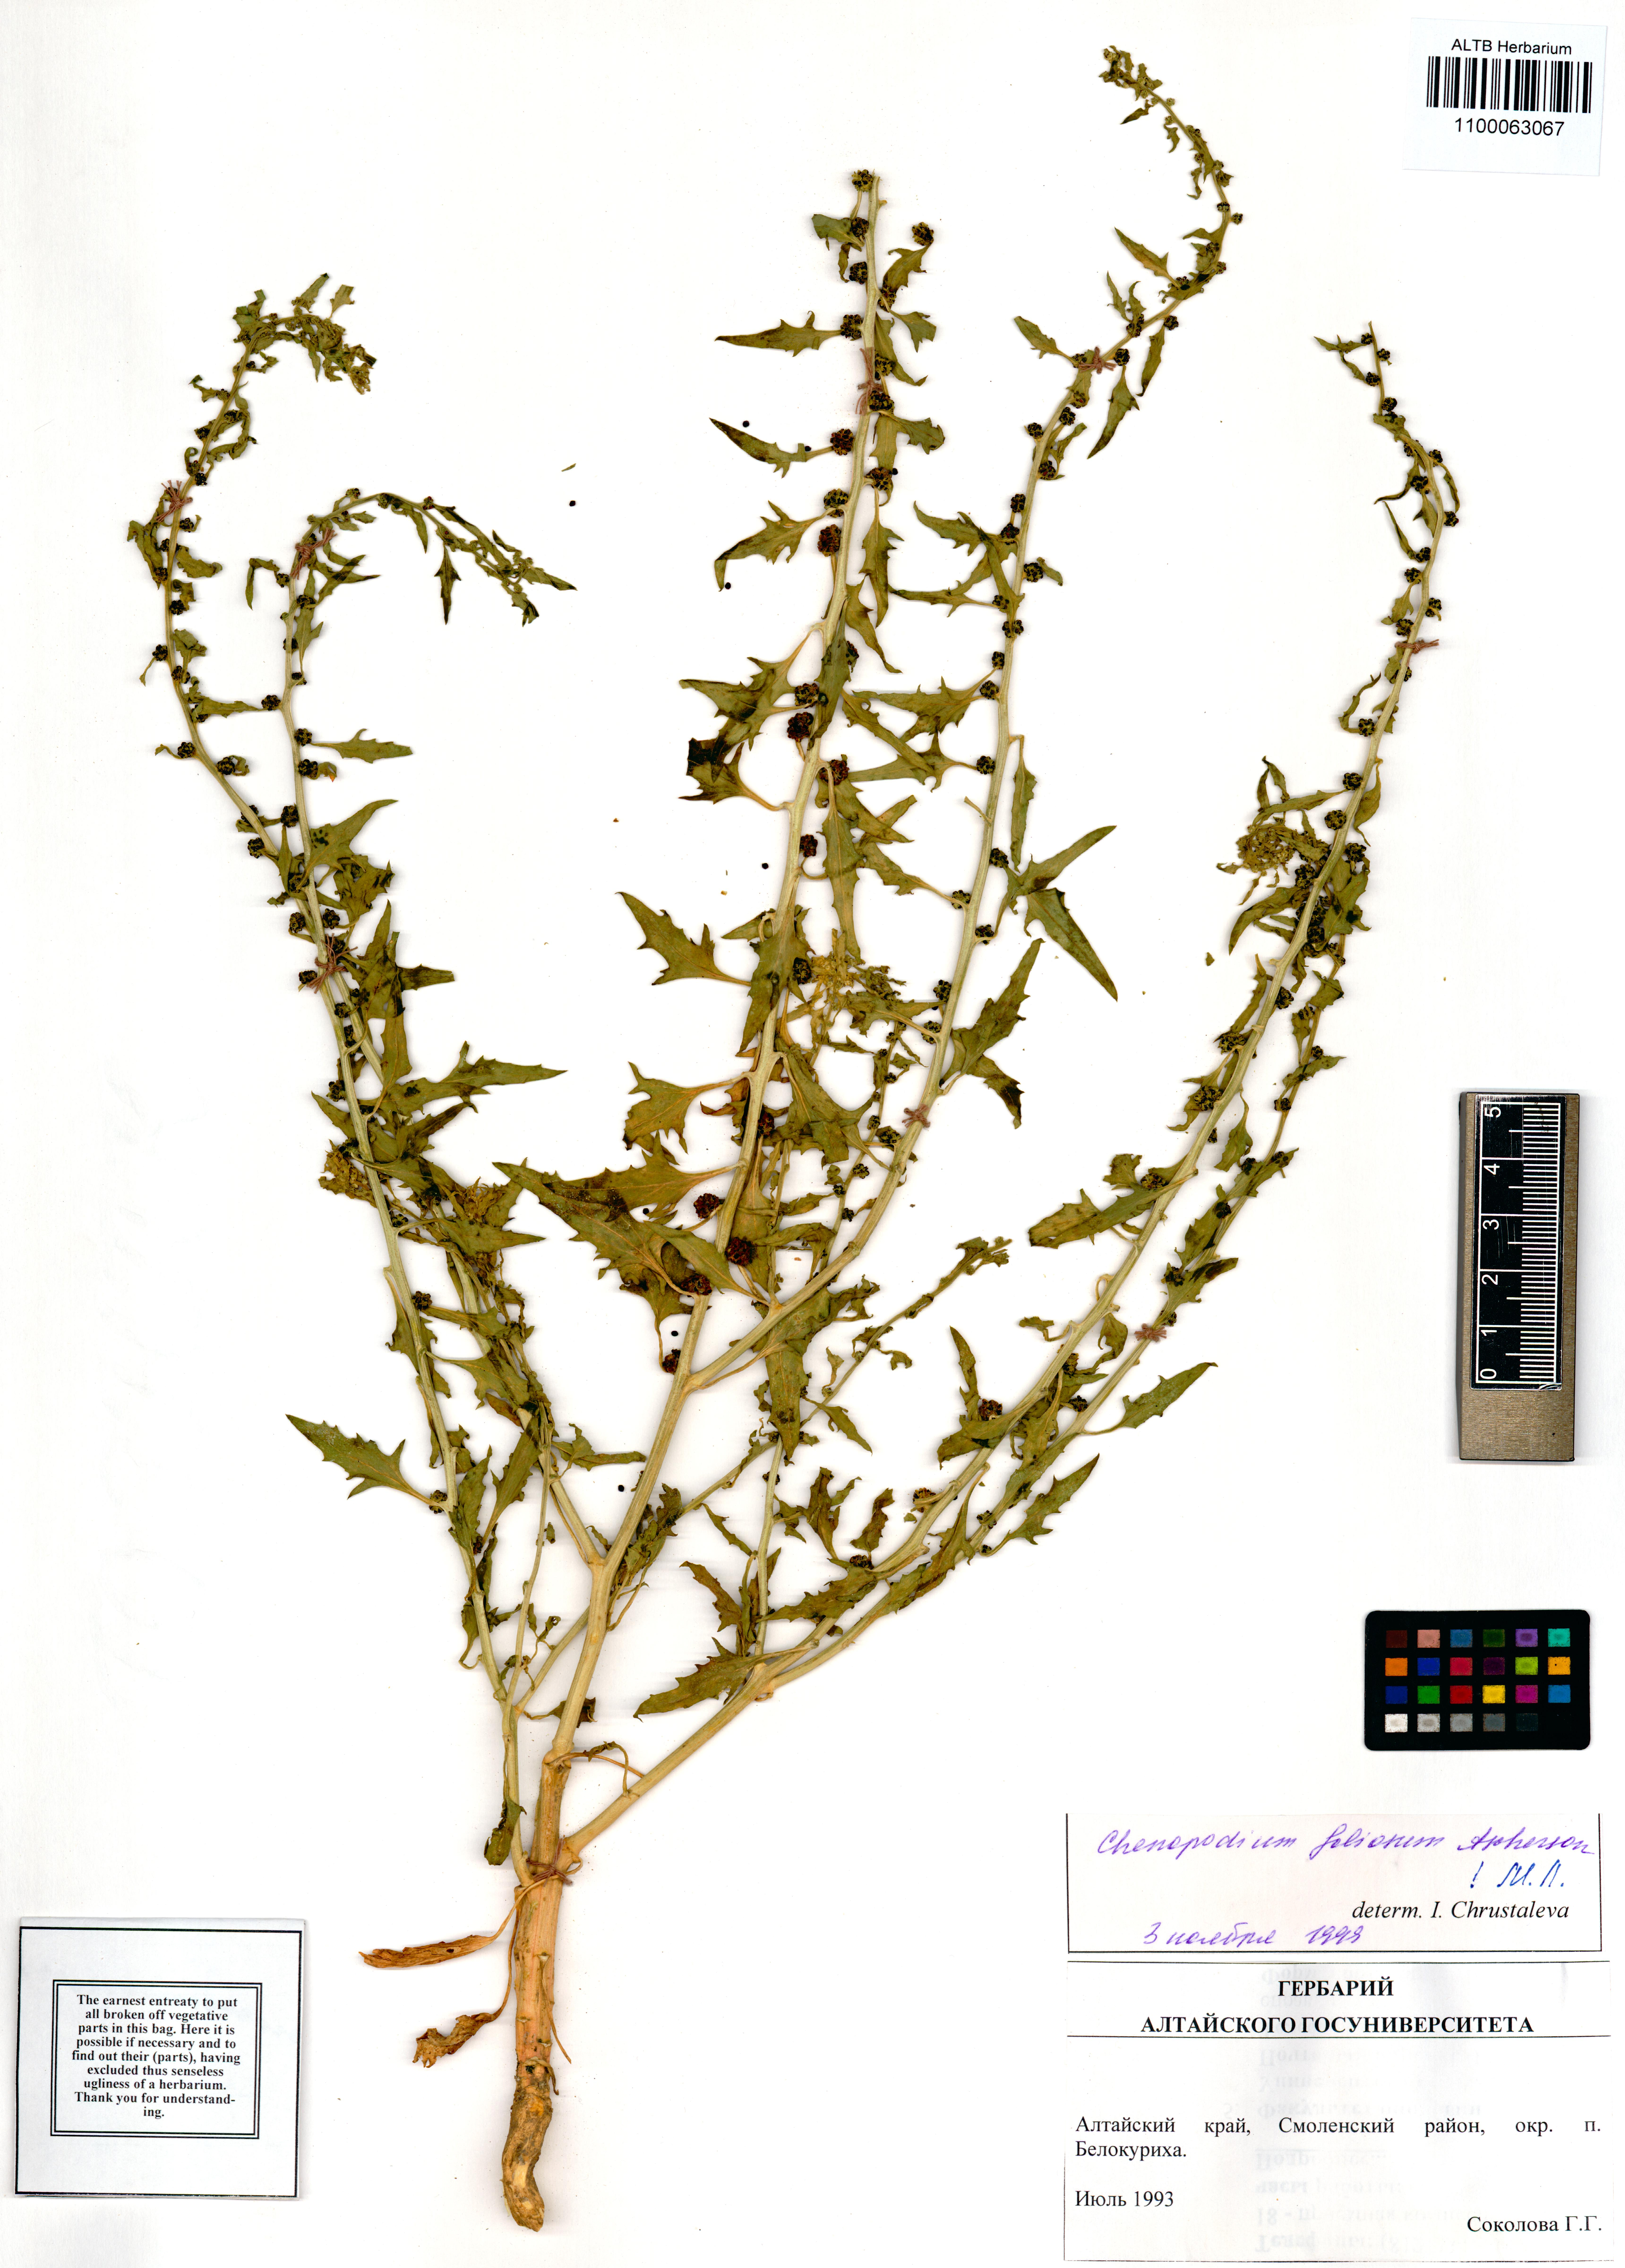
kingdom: Plantae
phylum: Tracheophyta
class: Magnoliopsida
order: Caryophyllales
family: Amaranthaceae
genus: Blitum
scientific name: Blitum virgatum
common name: Strawberry goosefoot
